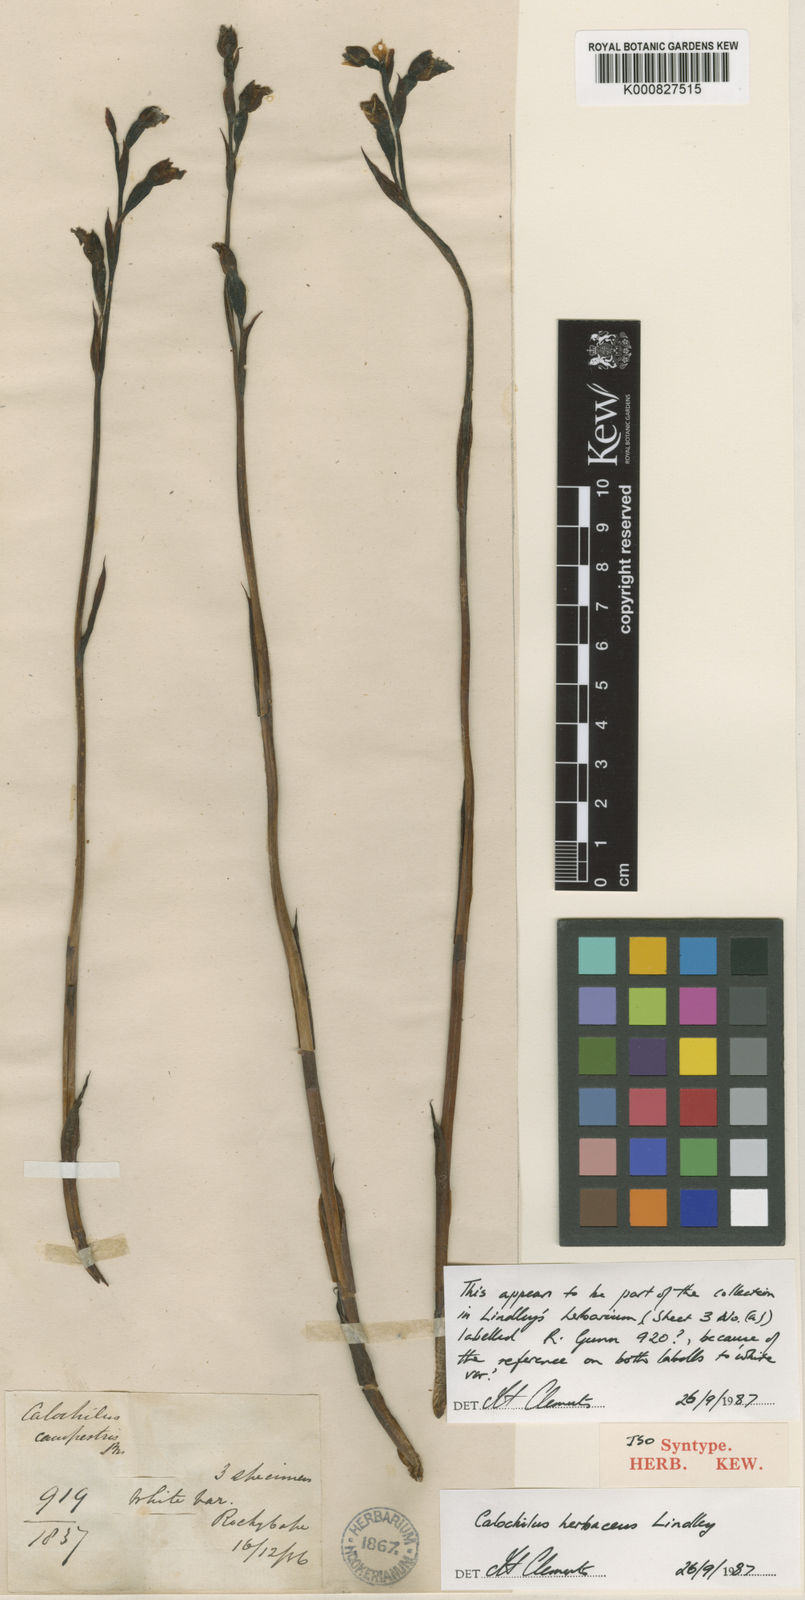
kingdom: Plantae
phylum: Tracheophyta
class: Liliopsida
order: Asparagales
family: Orchidaceae
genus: Calochilus
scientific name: Calochilus herbaceus
